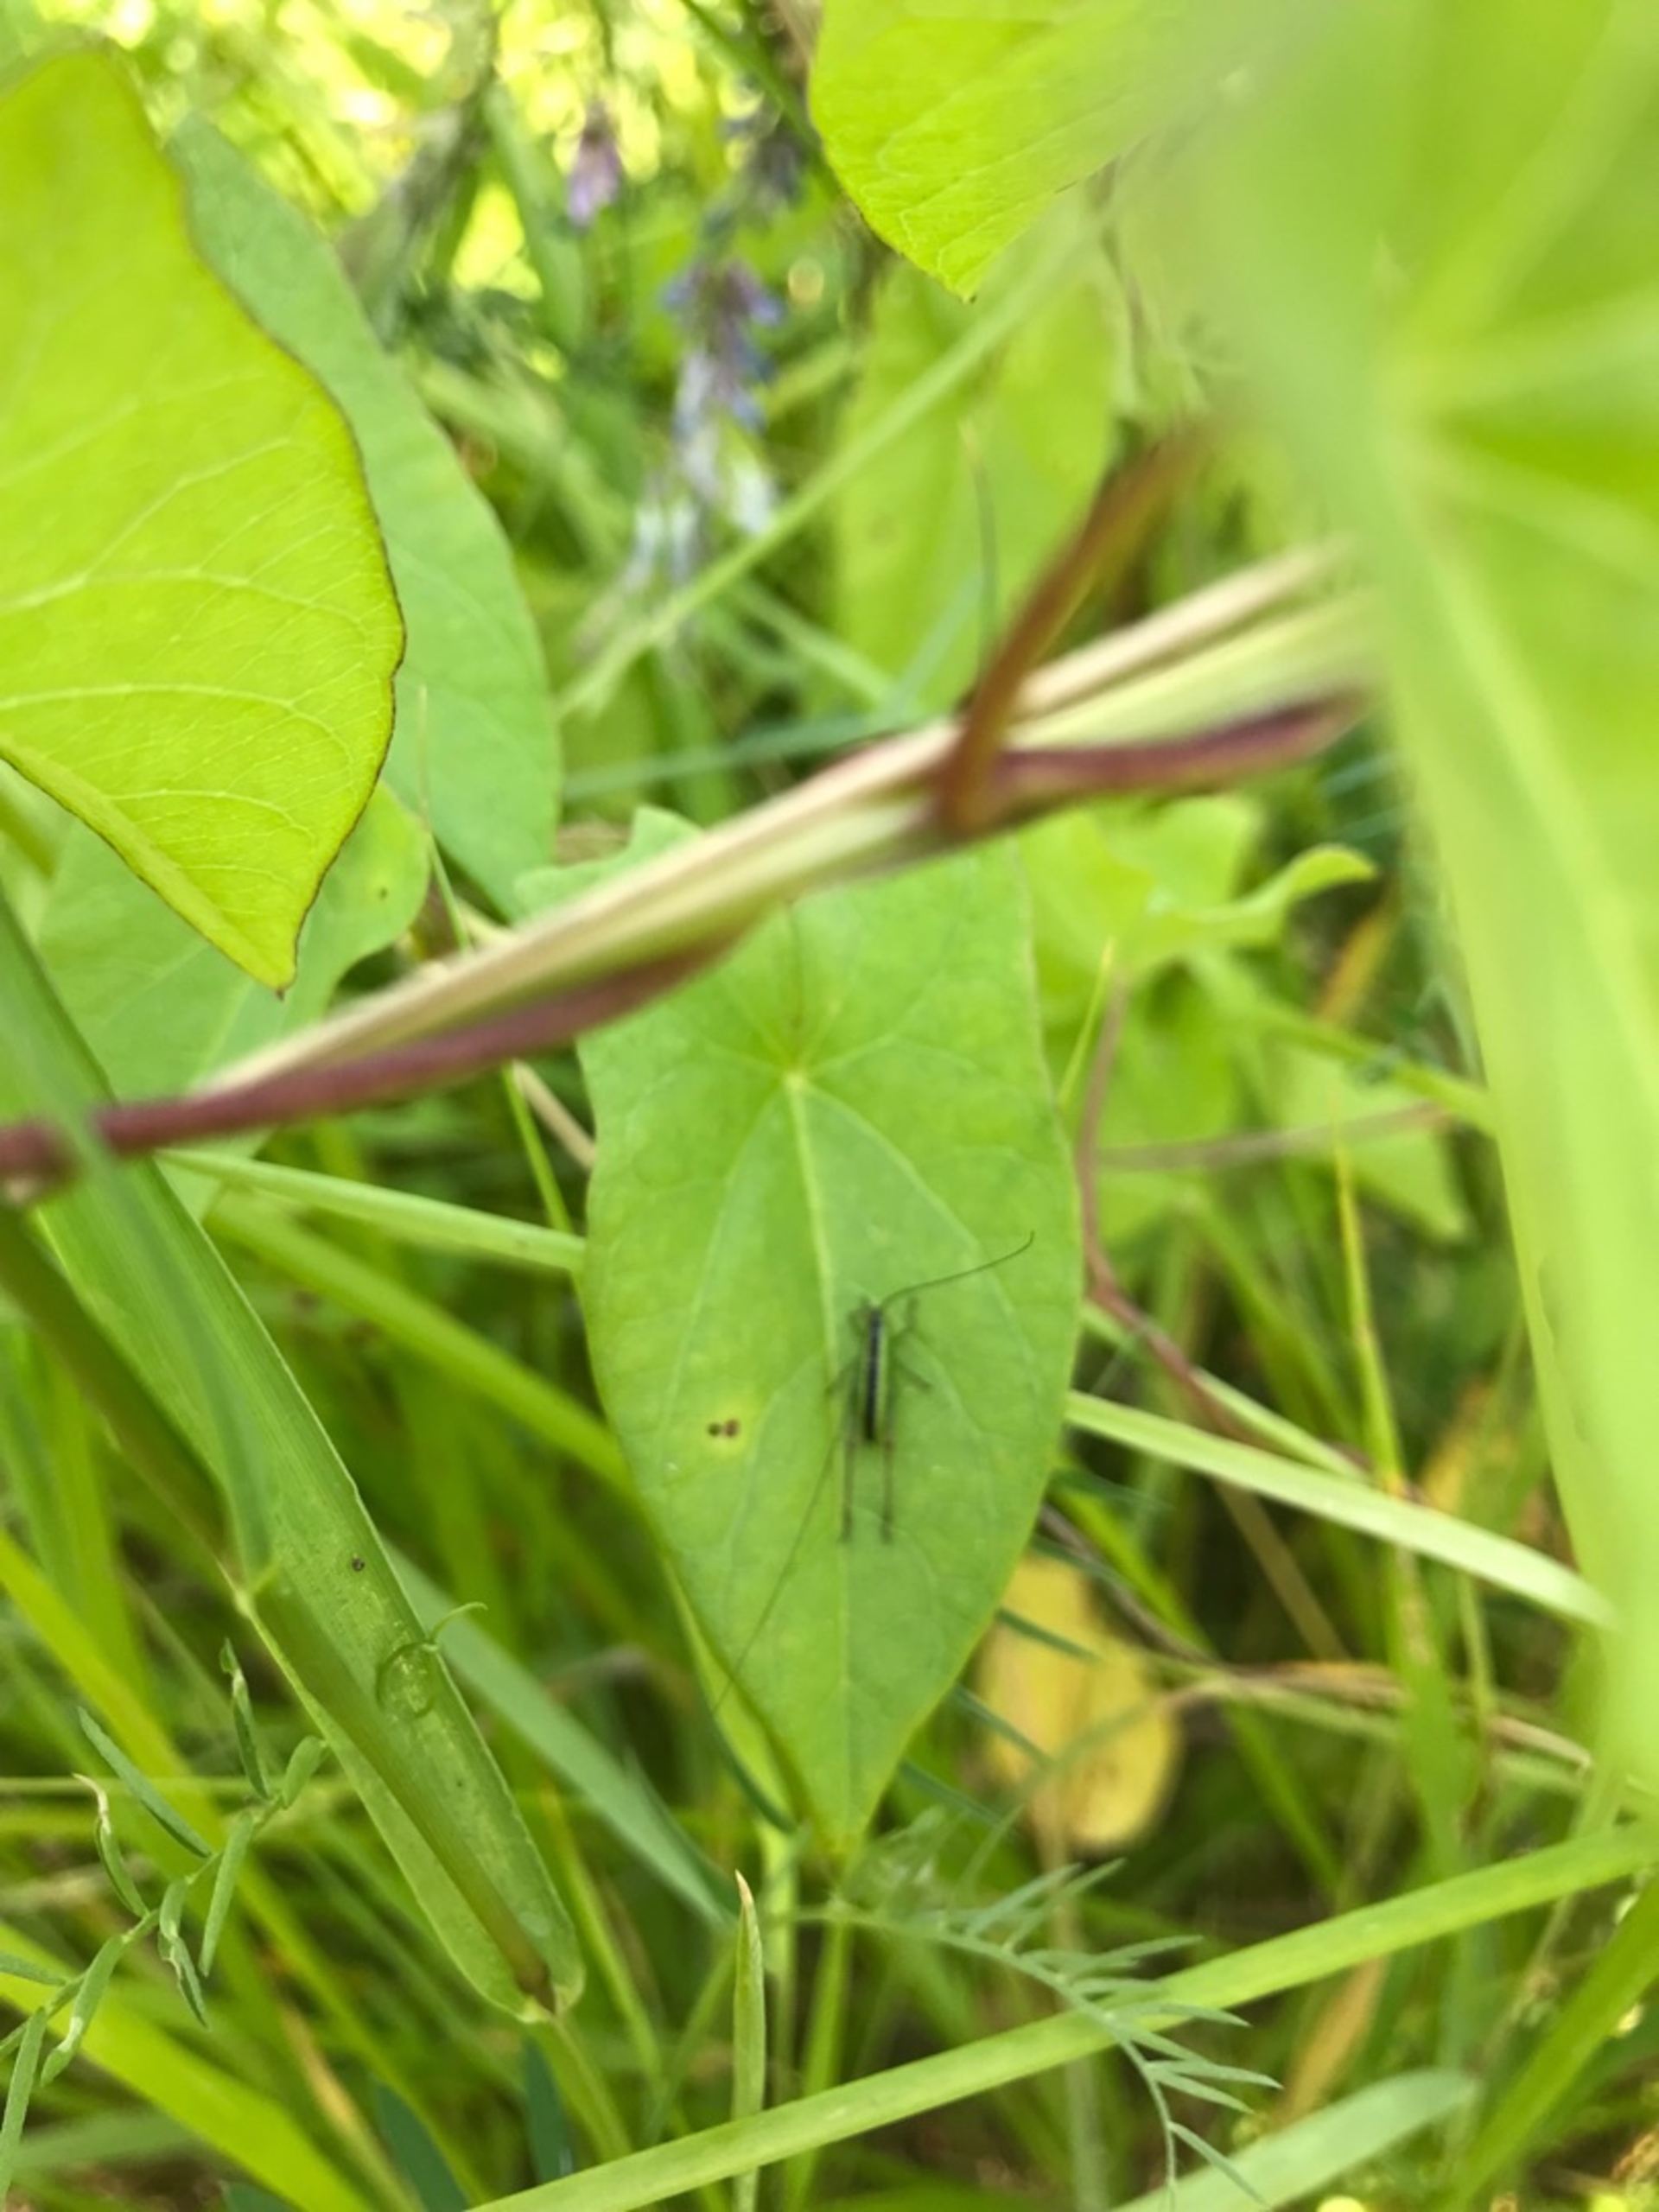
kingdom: Animalia
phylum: Arthropoda
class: Insecta
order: Orthoptera
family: Tettigoniidae
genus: Conocephalus
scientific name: Conocephalus dorsalis
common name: Sivgræshoppe
